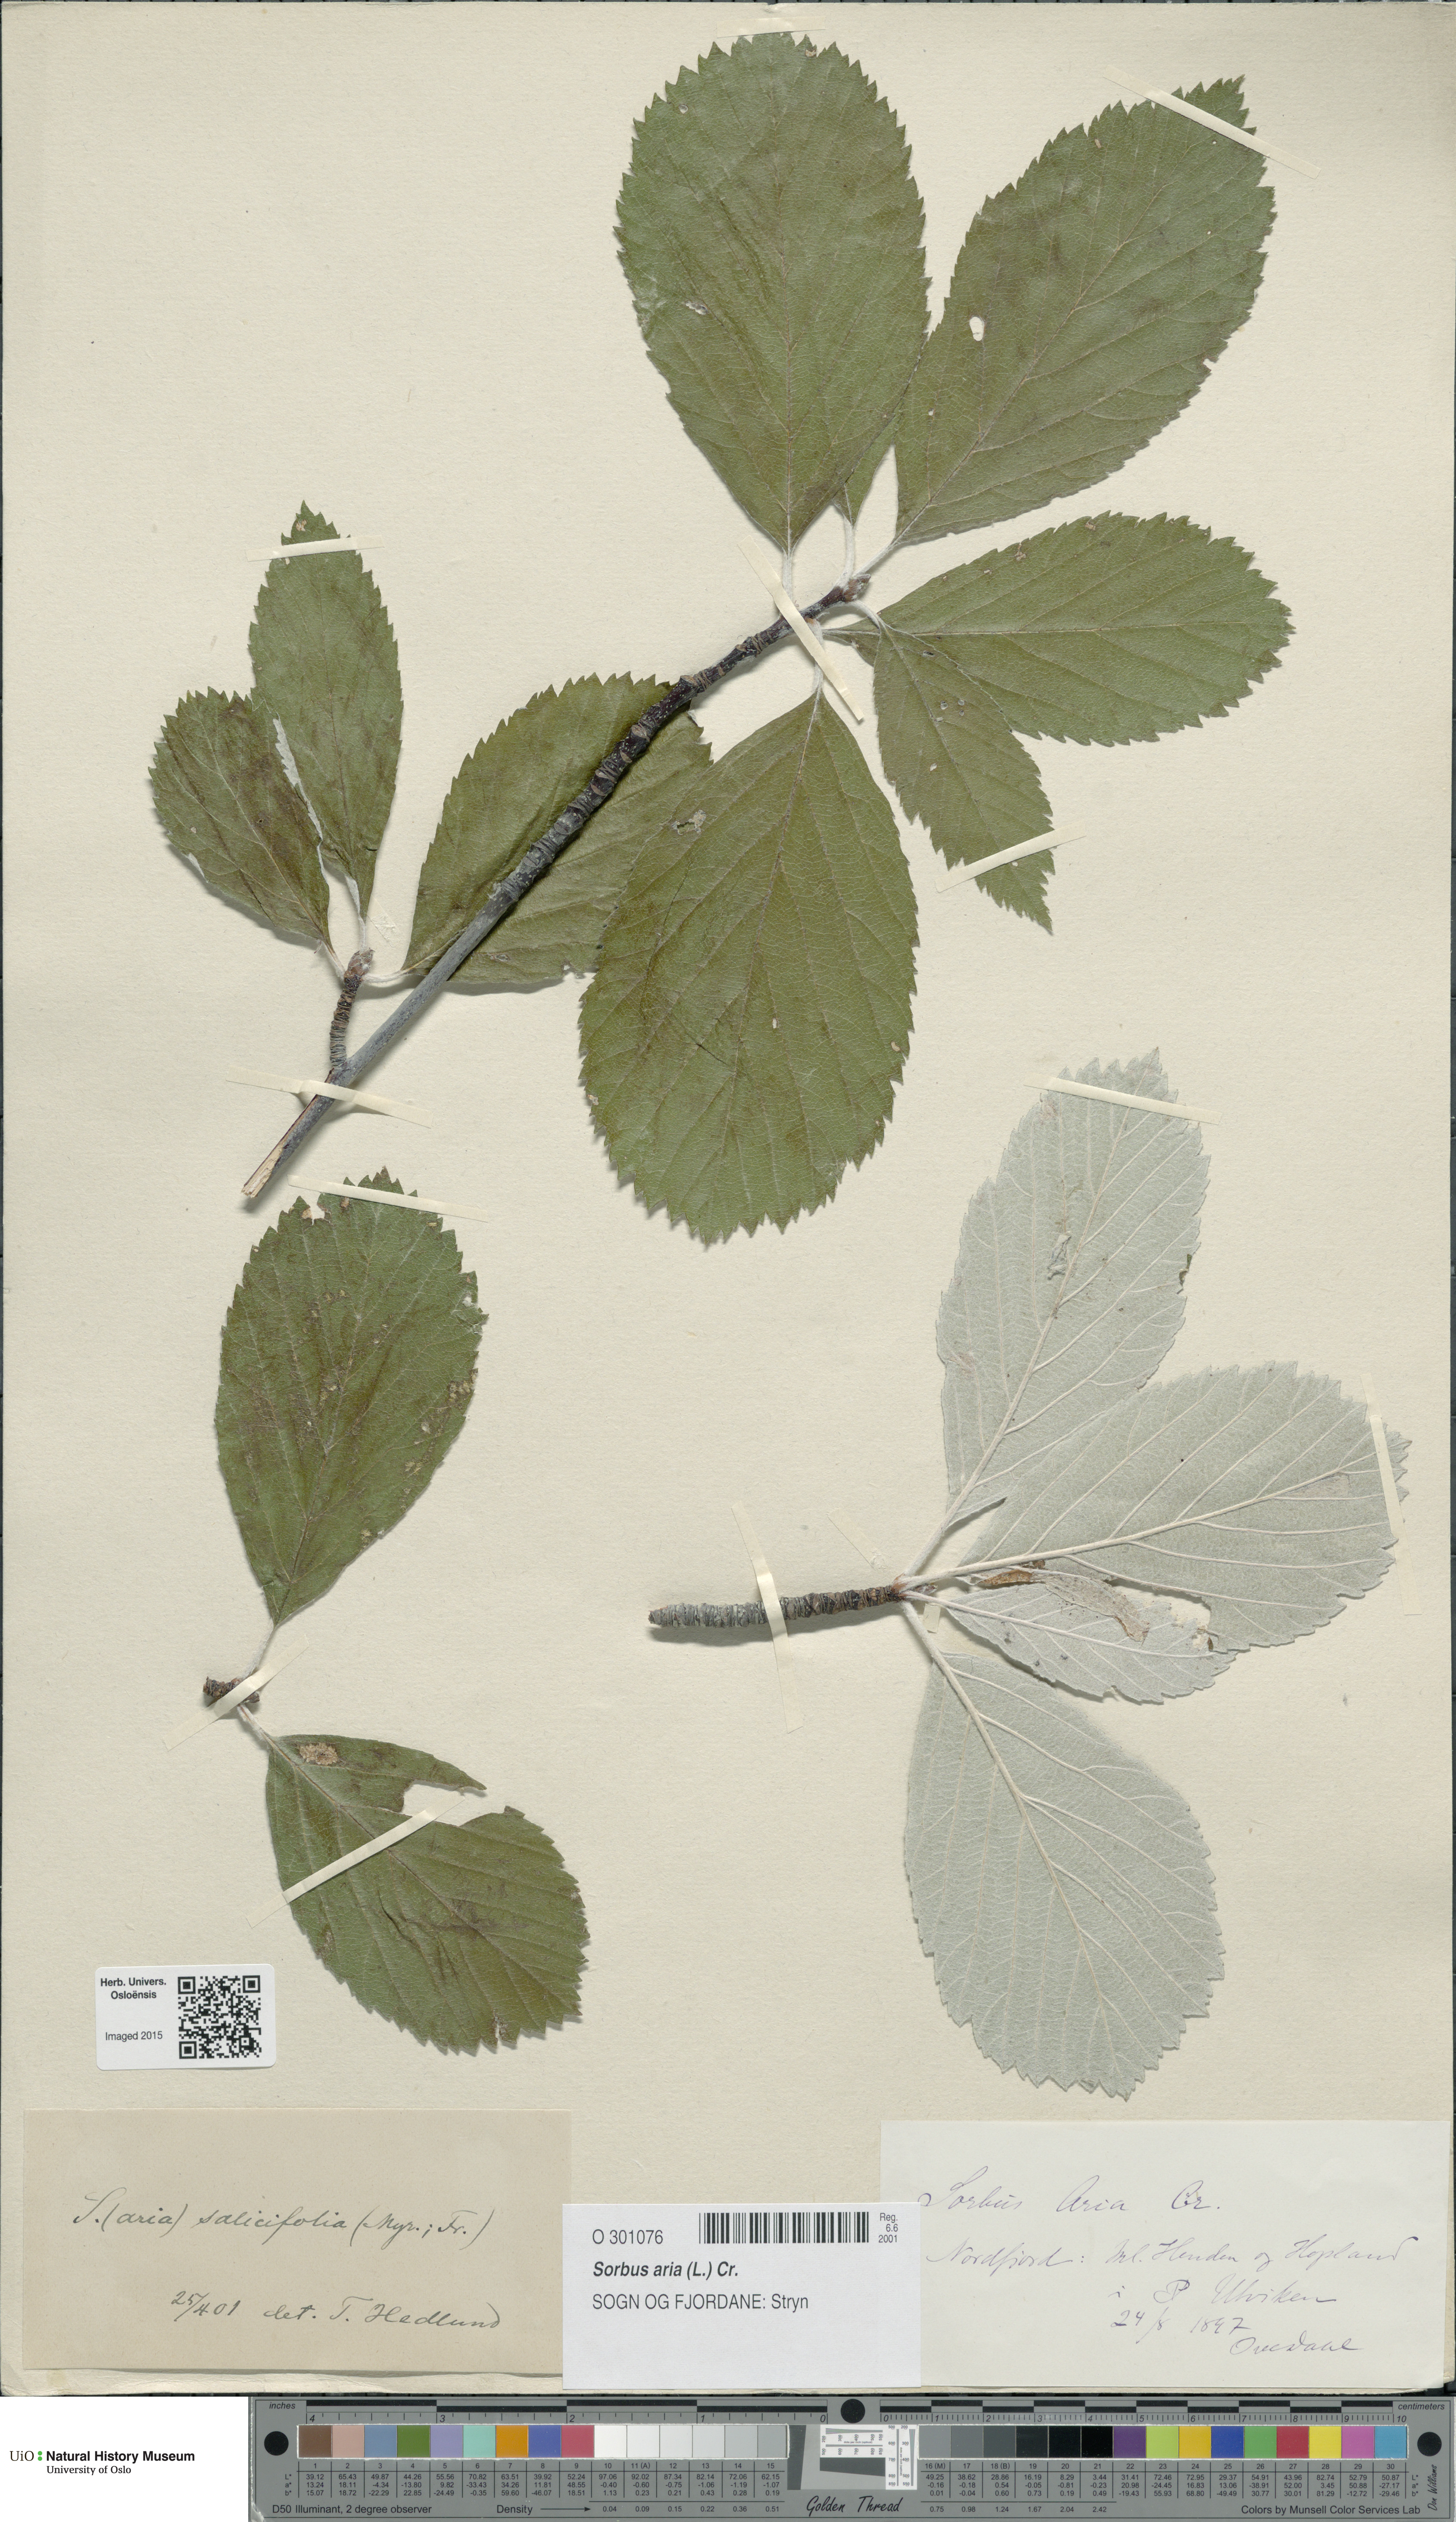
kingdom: Plantae
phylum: Tracheophyta
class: Magnoliopsida
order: Rosales
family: Rosaceae
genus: Aria
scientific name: Aria edulis
